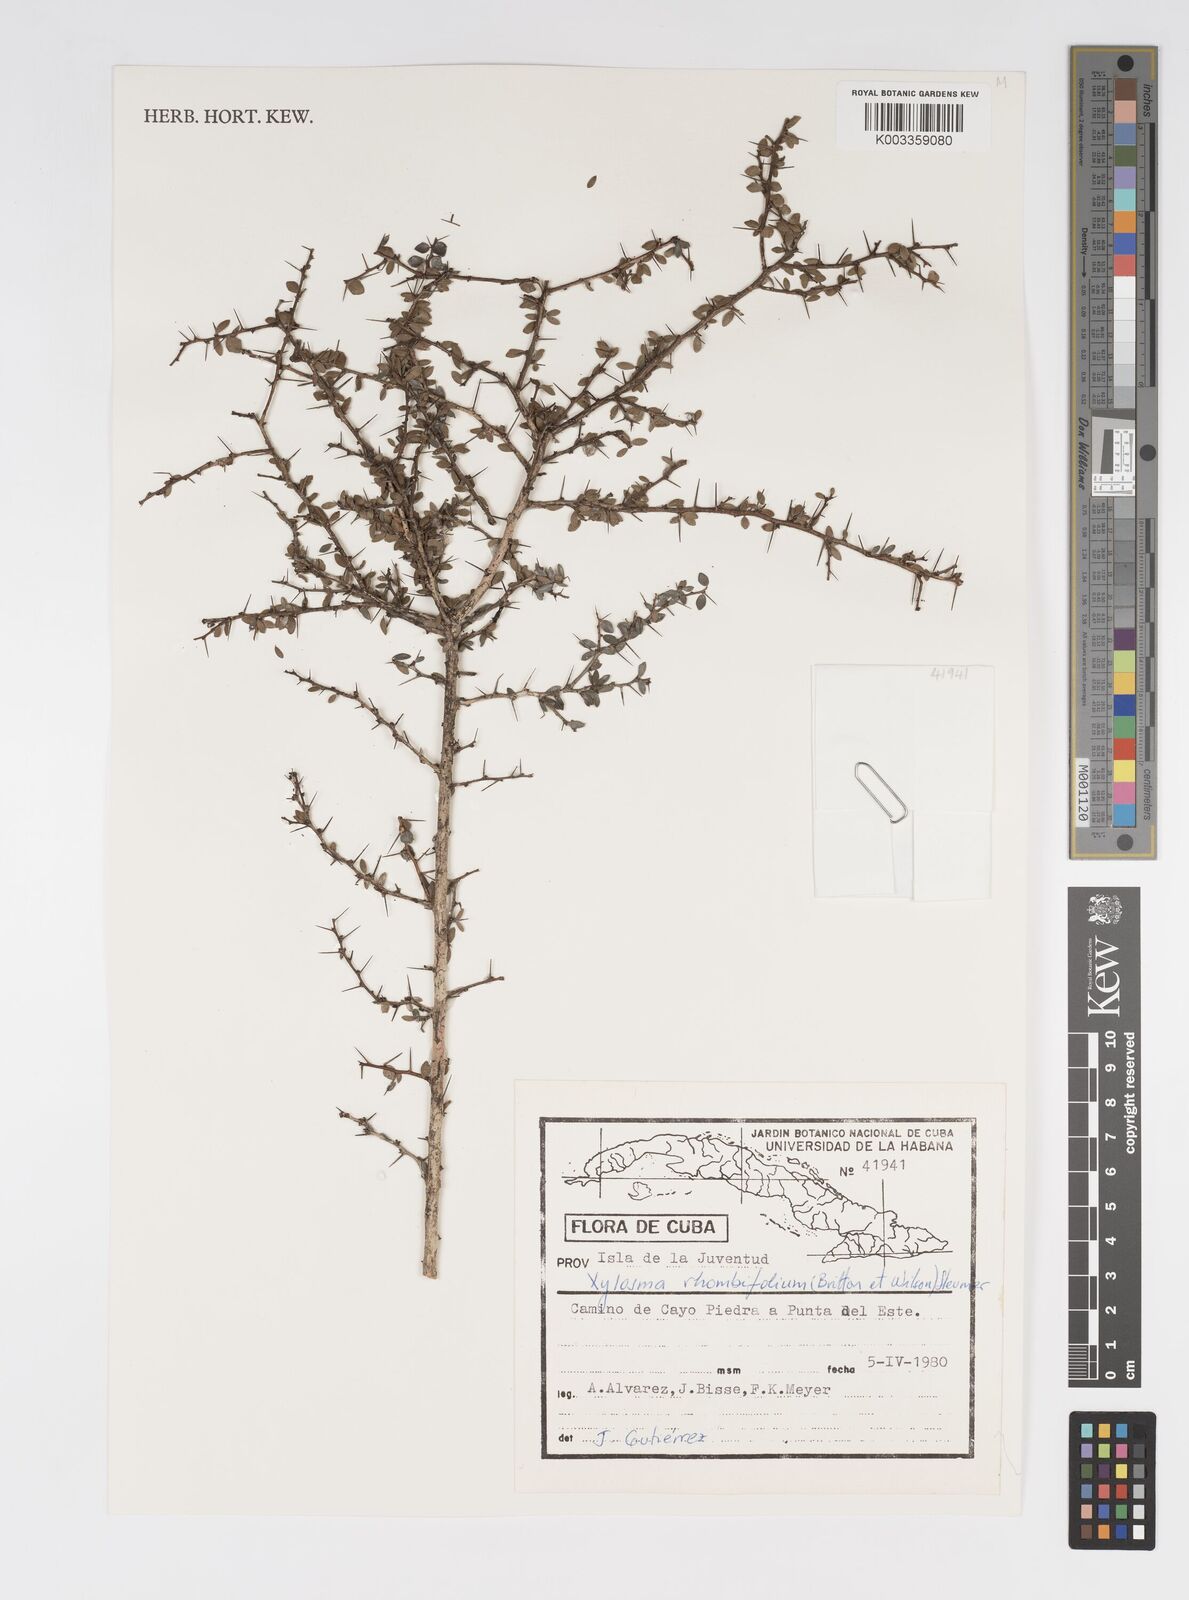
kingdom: Plantae
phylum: Tracheophyta
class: Magnoliopsida
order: Malpighiales
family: Salicaceae
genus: Xylosma
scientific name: Xylosma rhombifolia
